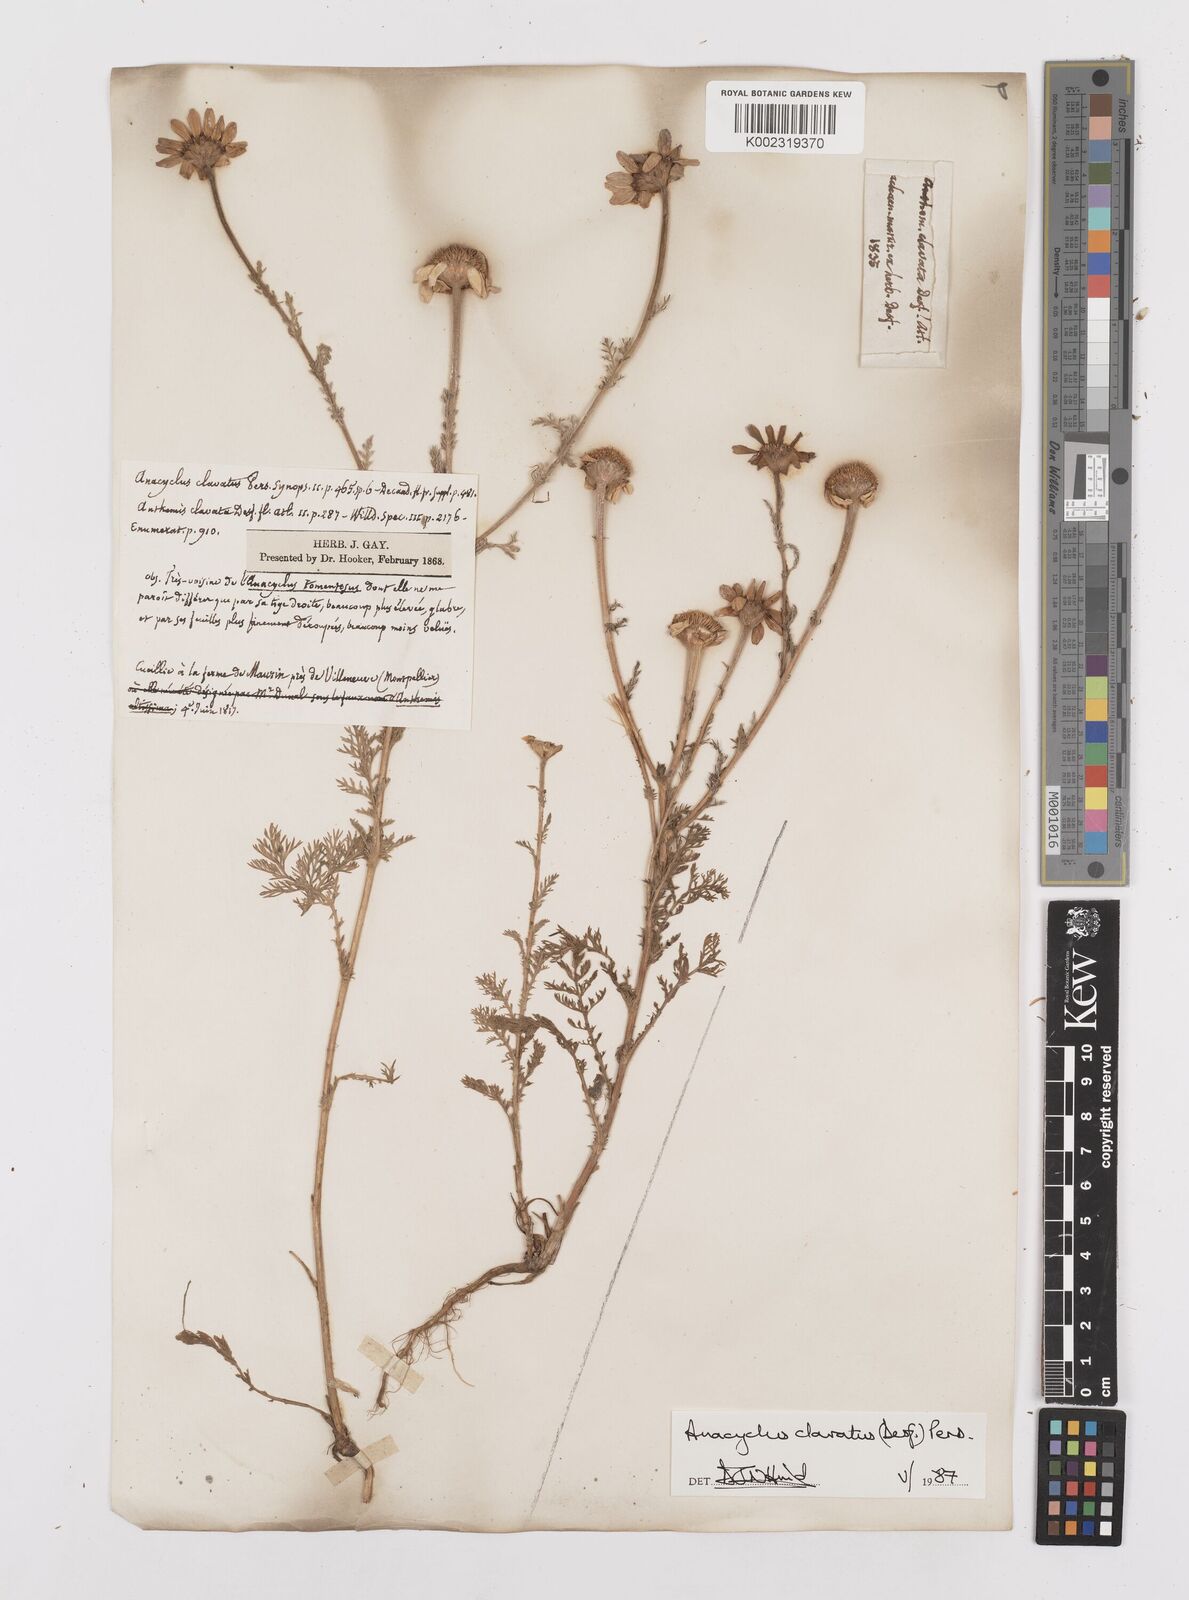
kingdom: Plantae
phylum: Tracheophyta
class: Magnoliopsida
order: Asterales
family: Asteraceae
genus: Anacyclus
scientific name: Anacyclus clavatus
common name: Whitebuttons
